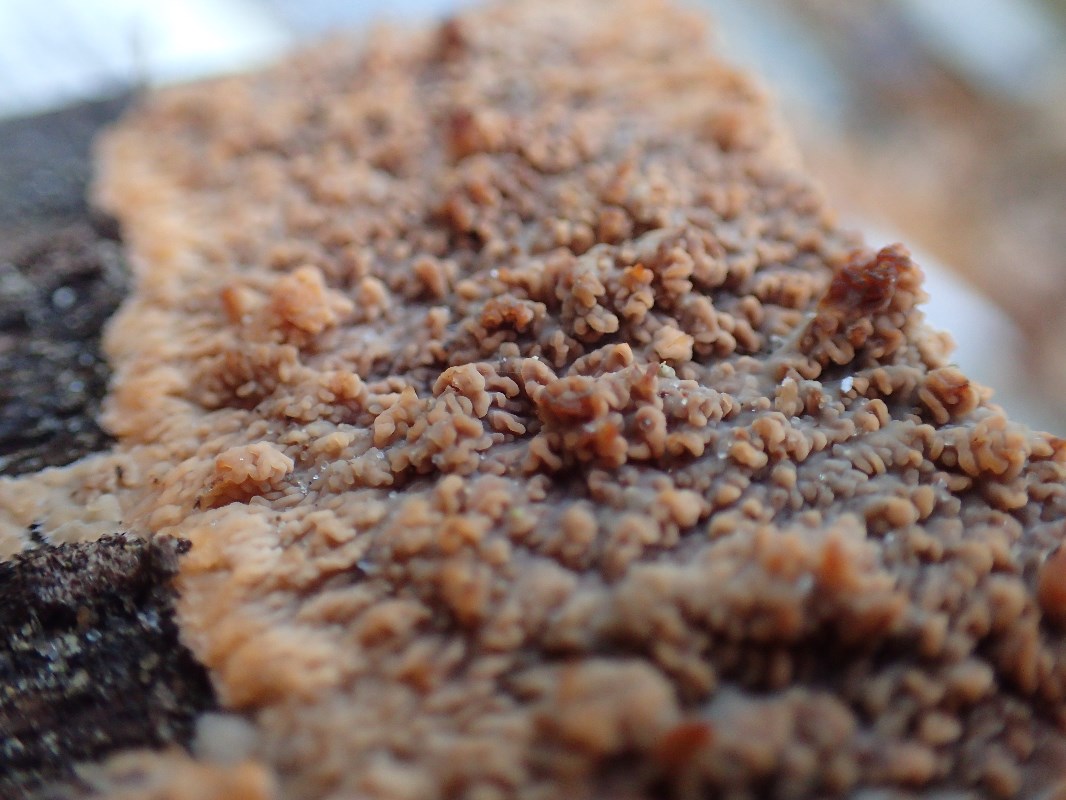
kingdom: Fungi
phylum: Basidiomycota
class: Agaricomycetes
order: Polyporales
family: Meruliaceae
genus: Phlebia
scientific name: Phlebia radiata
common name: stråle-åresvamp
